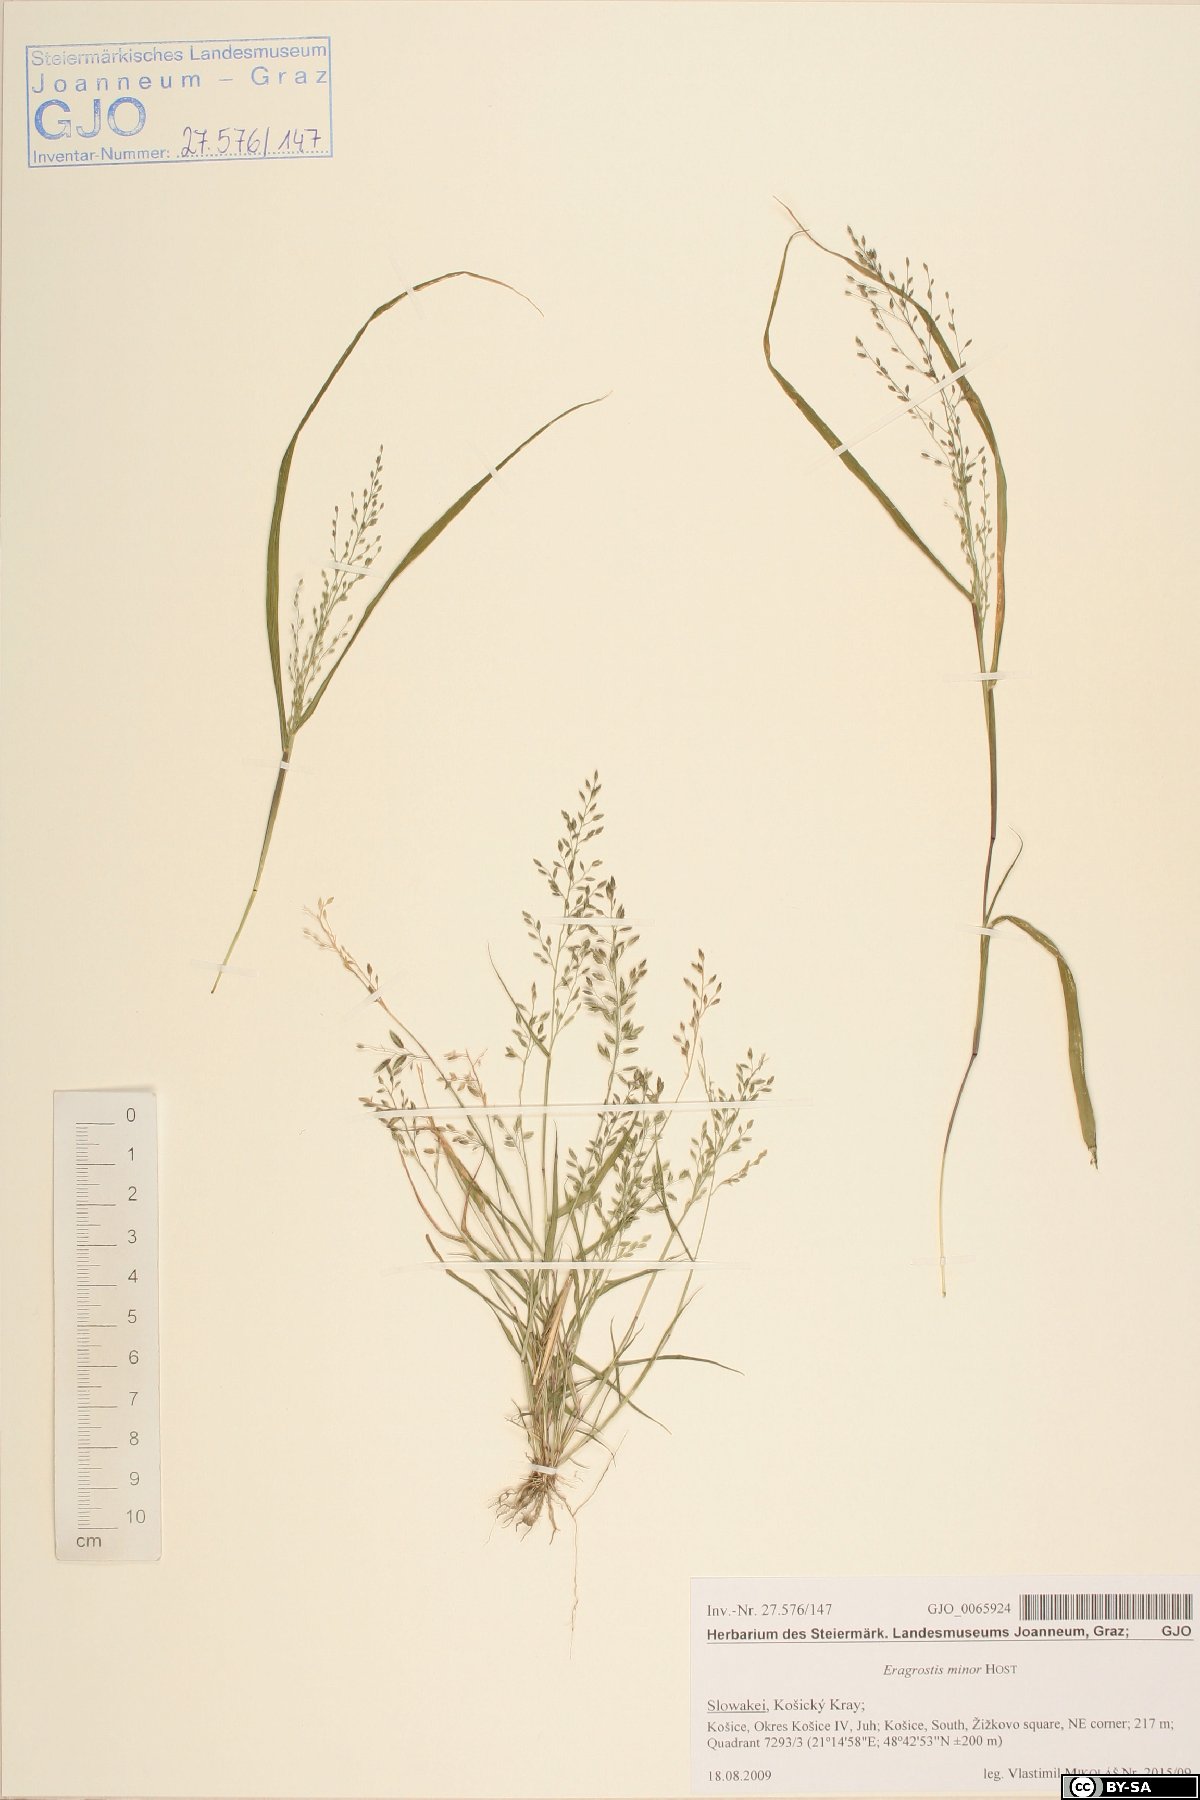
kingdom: Plantae
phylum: Tracheophyta
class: Liliopsida
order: Poales
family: Poaceae
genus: Eragrostis
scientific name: Eragrostis minor
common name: Small love-grass
